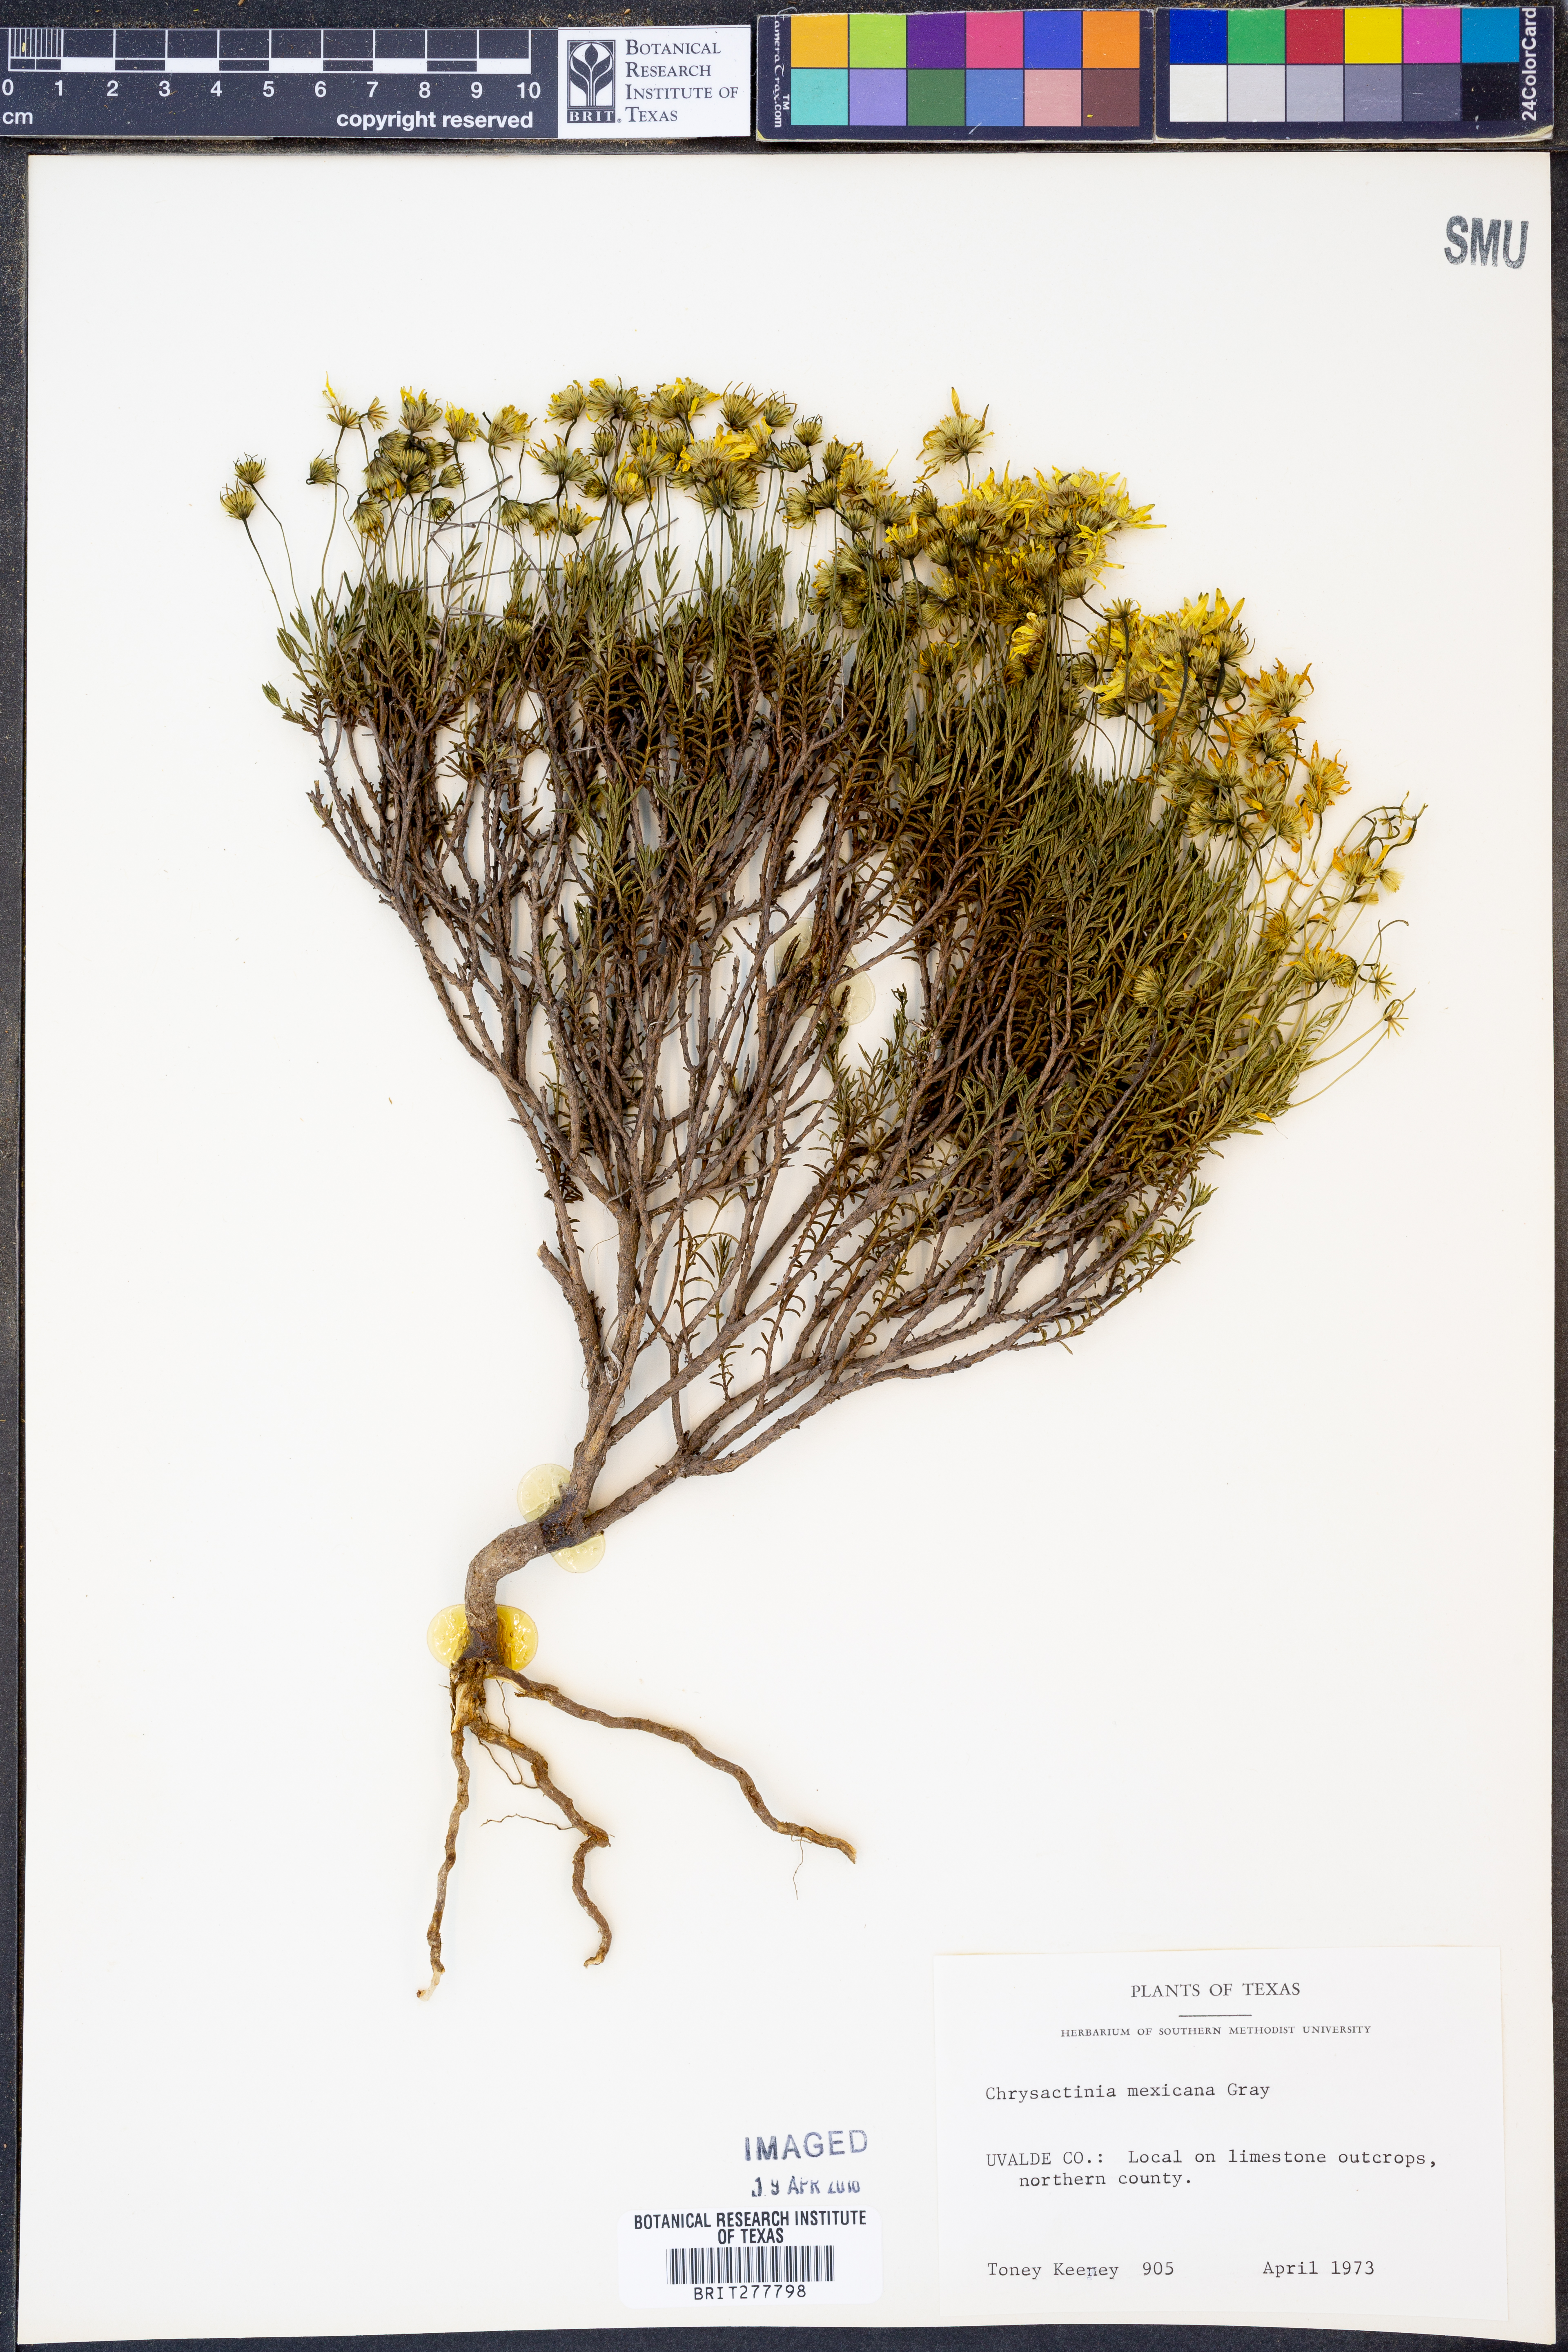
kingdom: Plantae
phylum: Tracheophyta
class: Magnoliopsida
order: Asterales
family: Asteraceae
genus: Chrysactinia
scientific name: Chrysactinia mexicana
